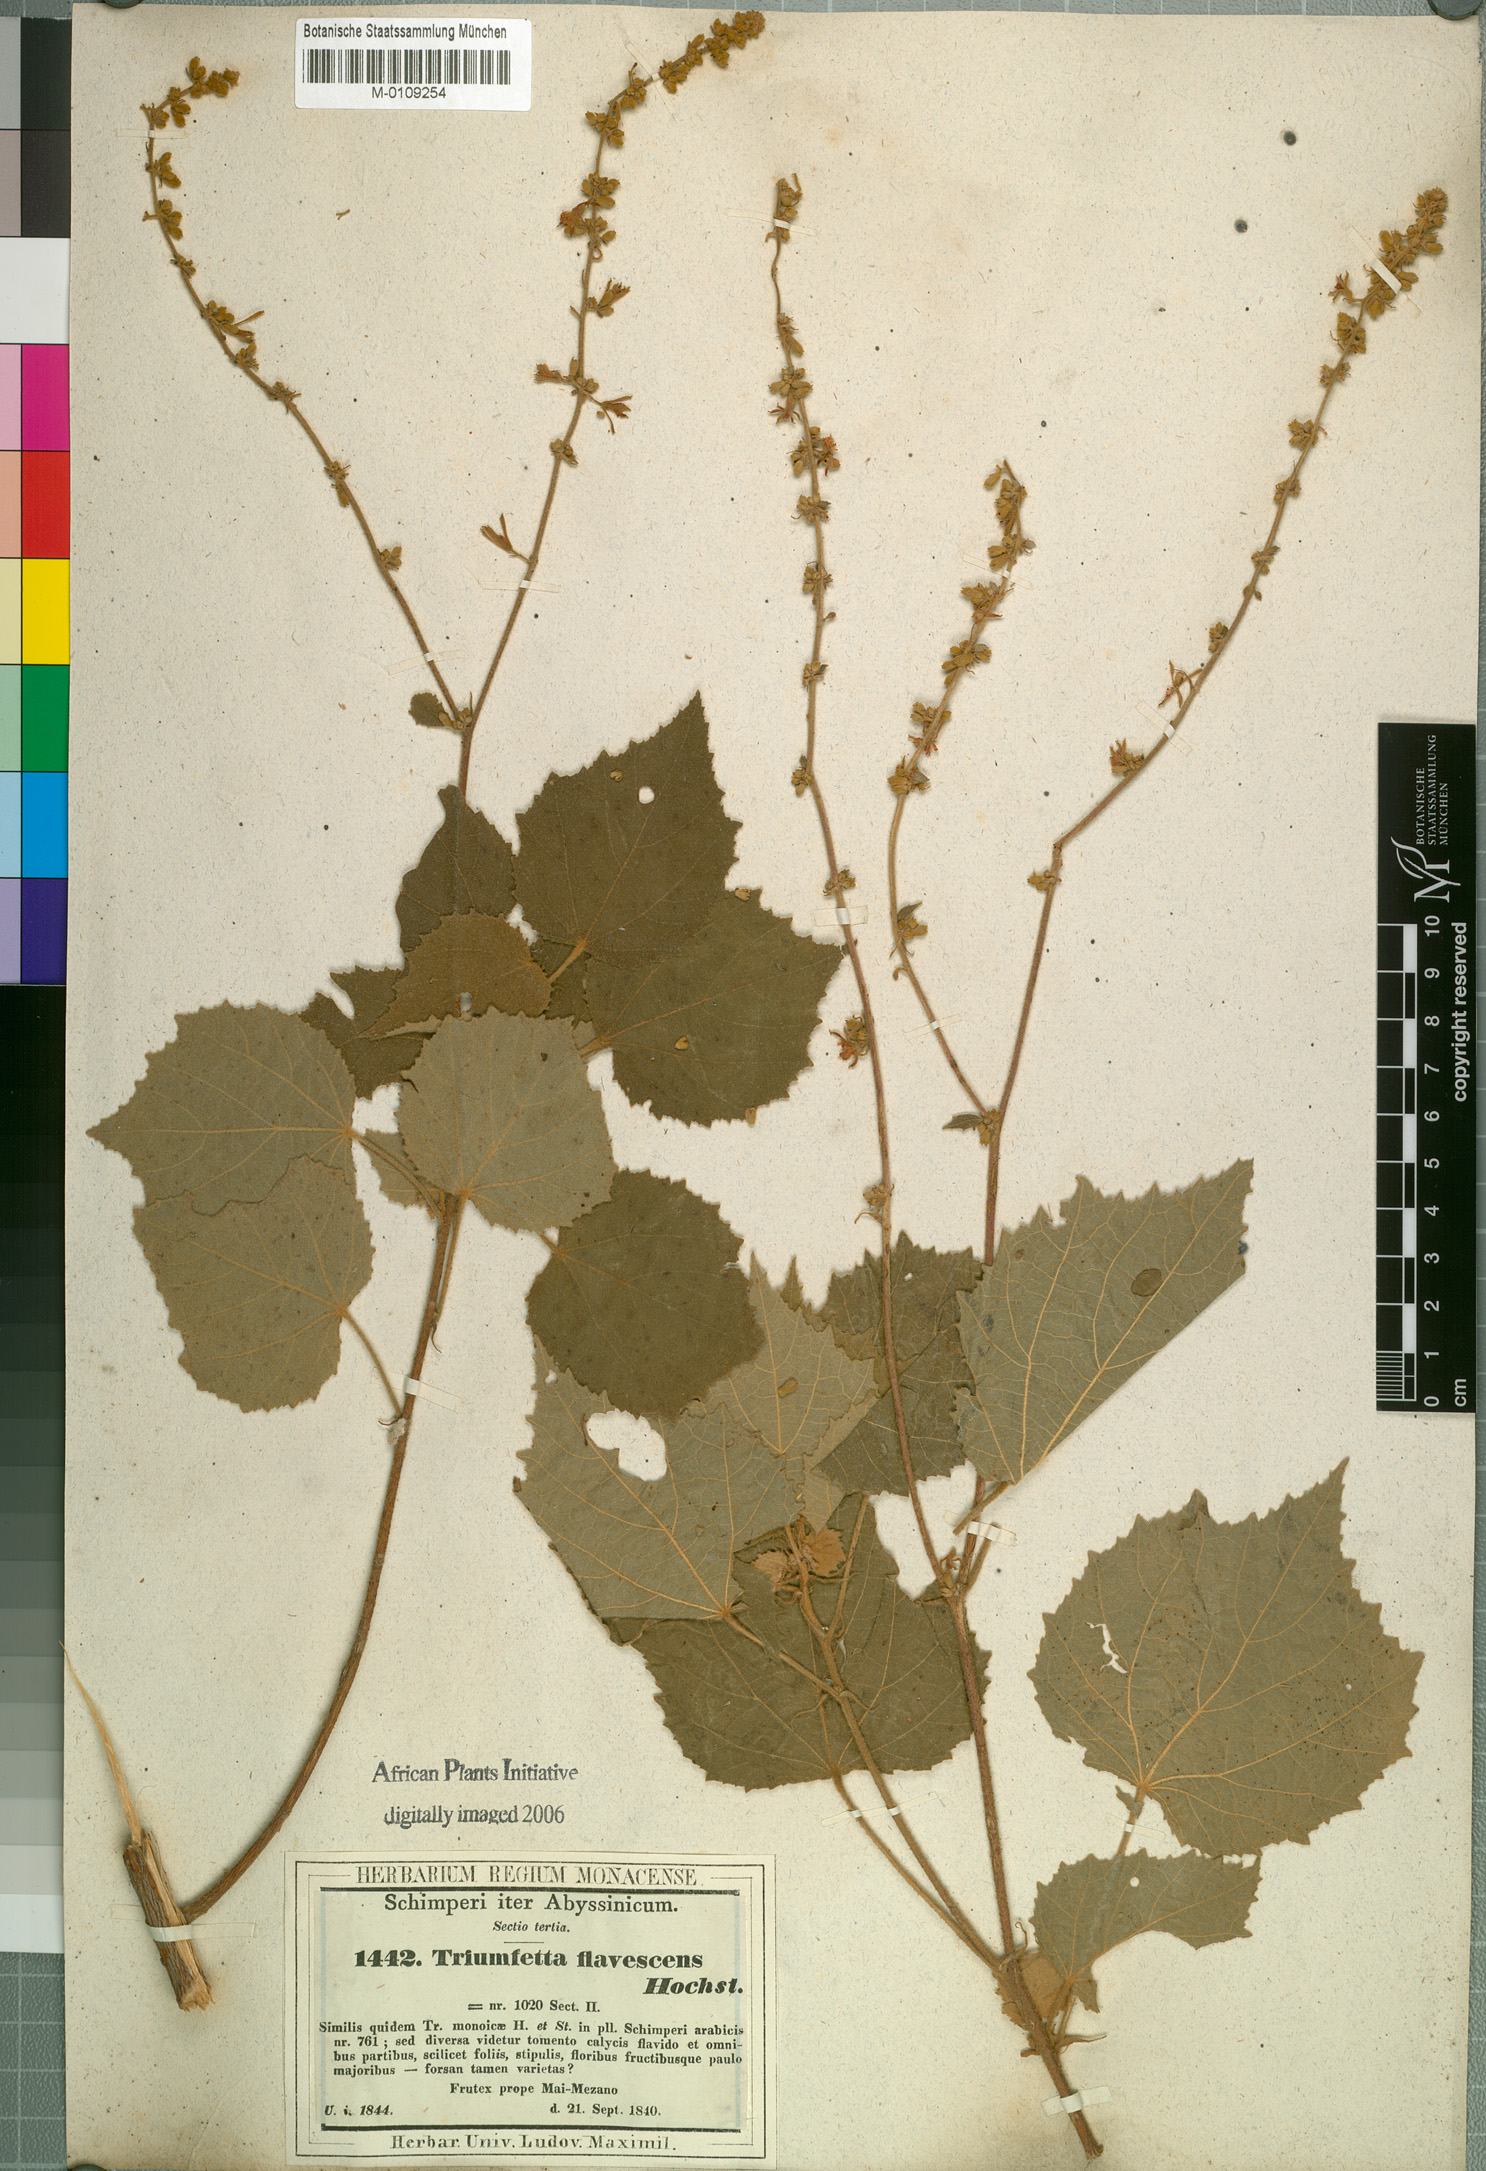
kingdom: Plantae
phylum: Tracheophyta
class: Magnoliopsida
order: Malvales
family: Malvaceae
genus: Triumfetta
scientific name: Triumfetta flavescens
